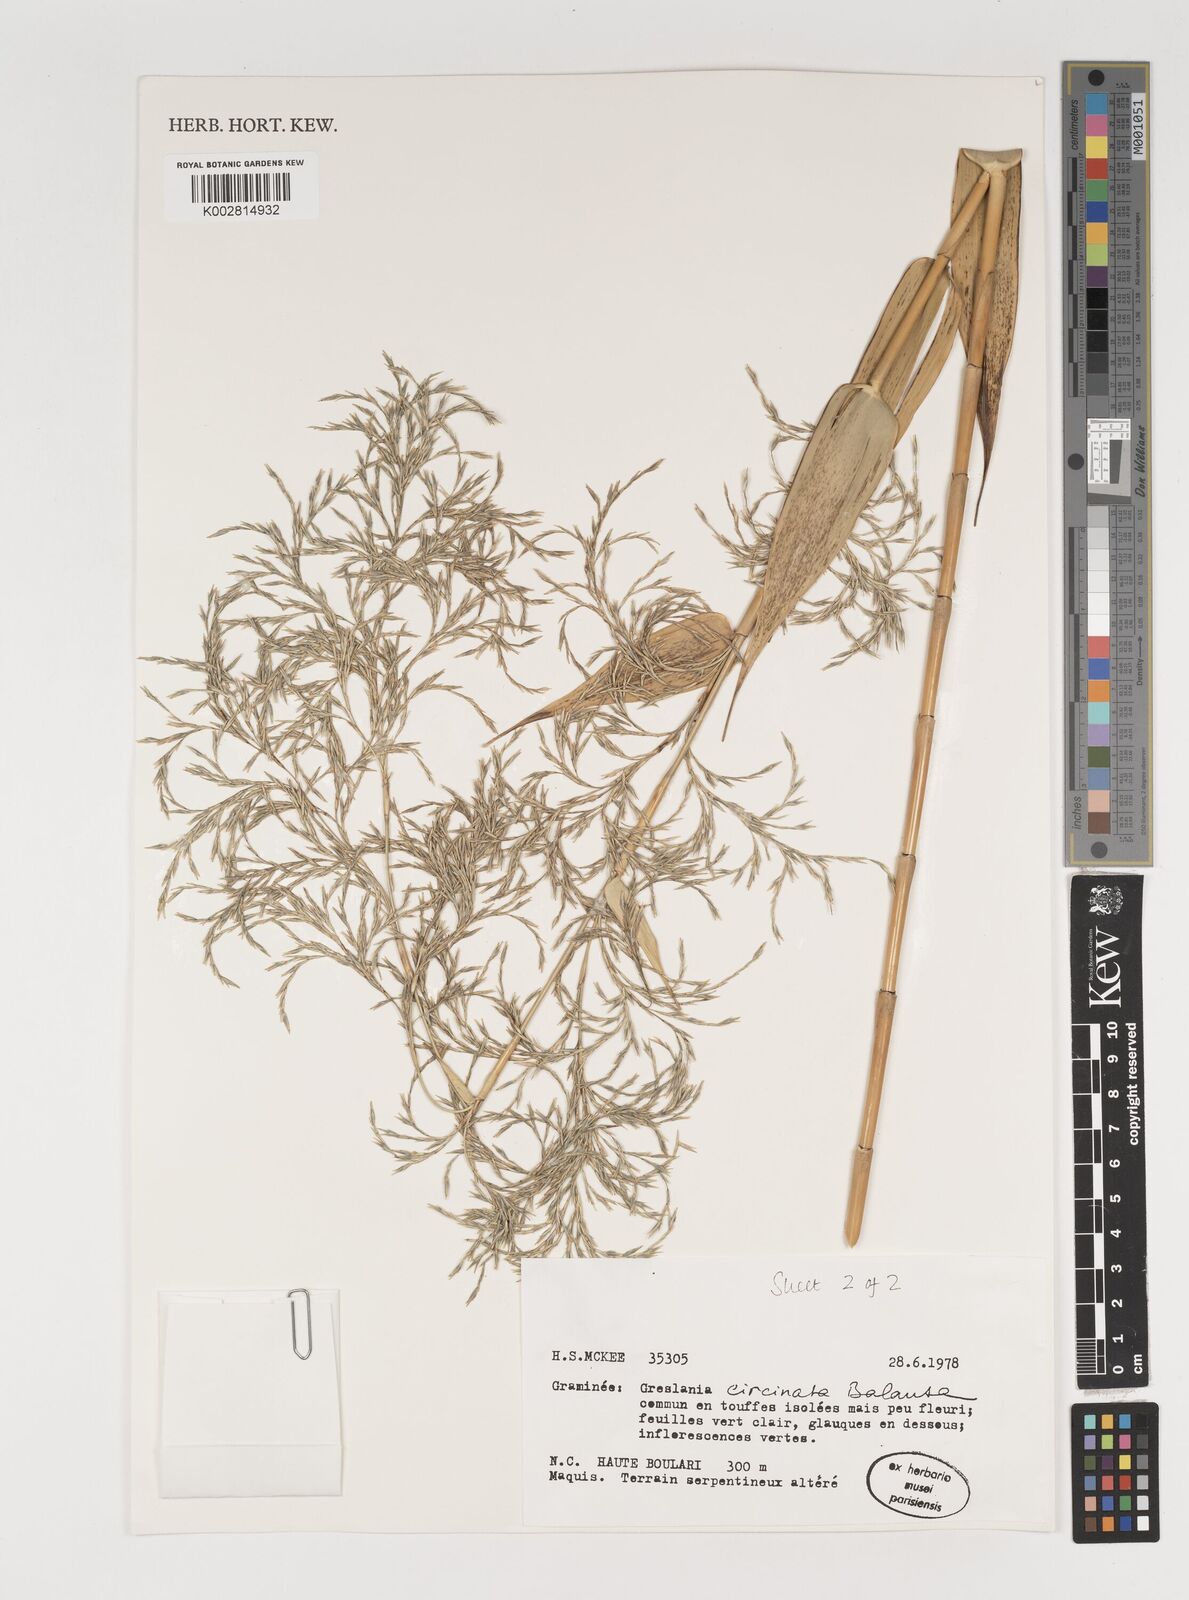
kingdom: Plantae
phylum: Tracheophyta
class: Liliopsida
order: Poales
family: Poaceae
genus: Greslania
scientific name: Greslania
